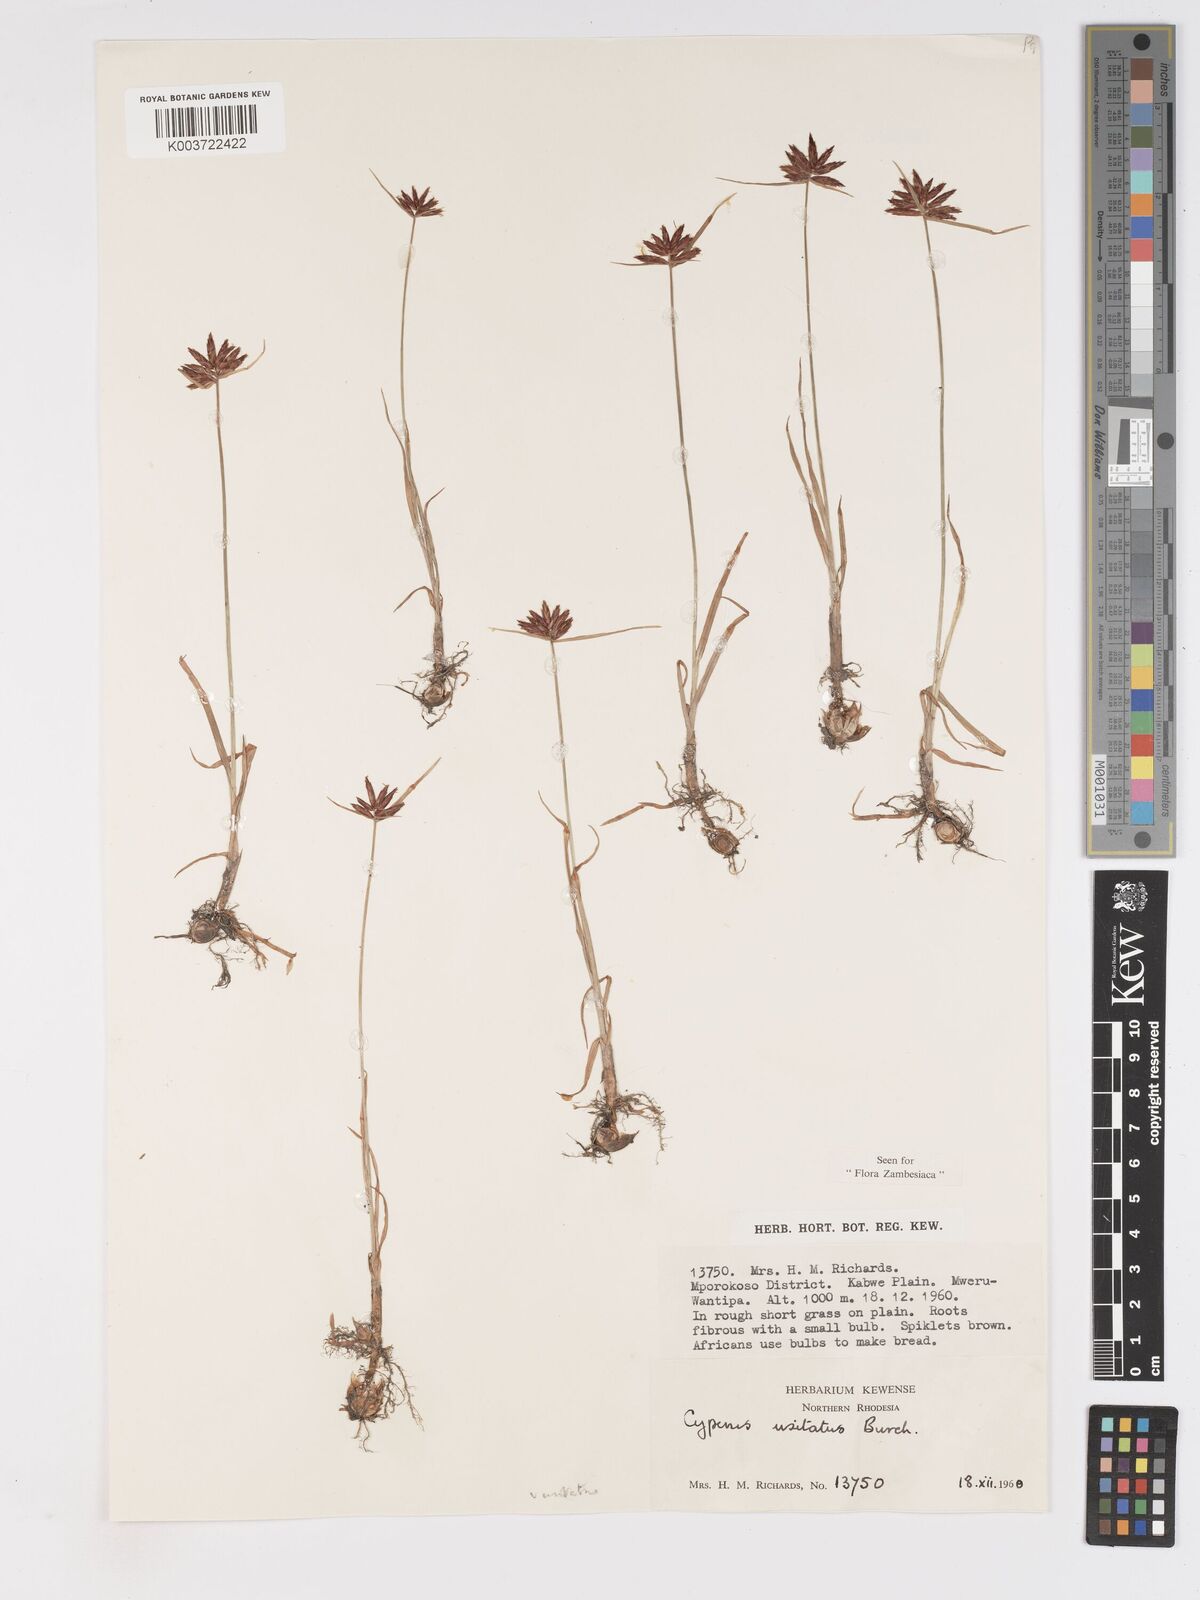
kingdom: Plantae
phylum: Tracheophyta
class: Liliopsida
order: Poales
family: Cyperaceae
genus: Cyperus
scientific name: Cyperus usitatus
